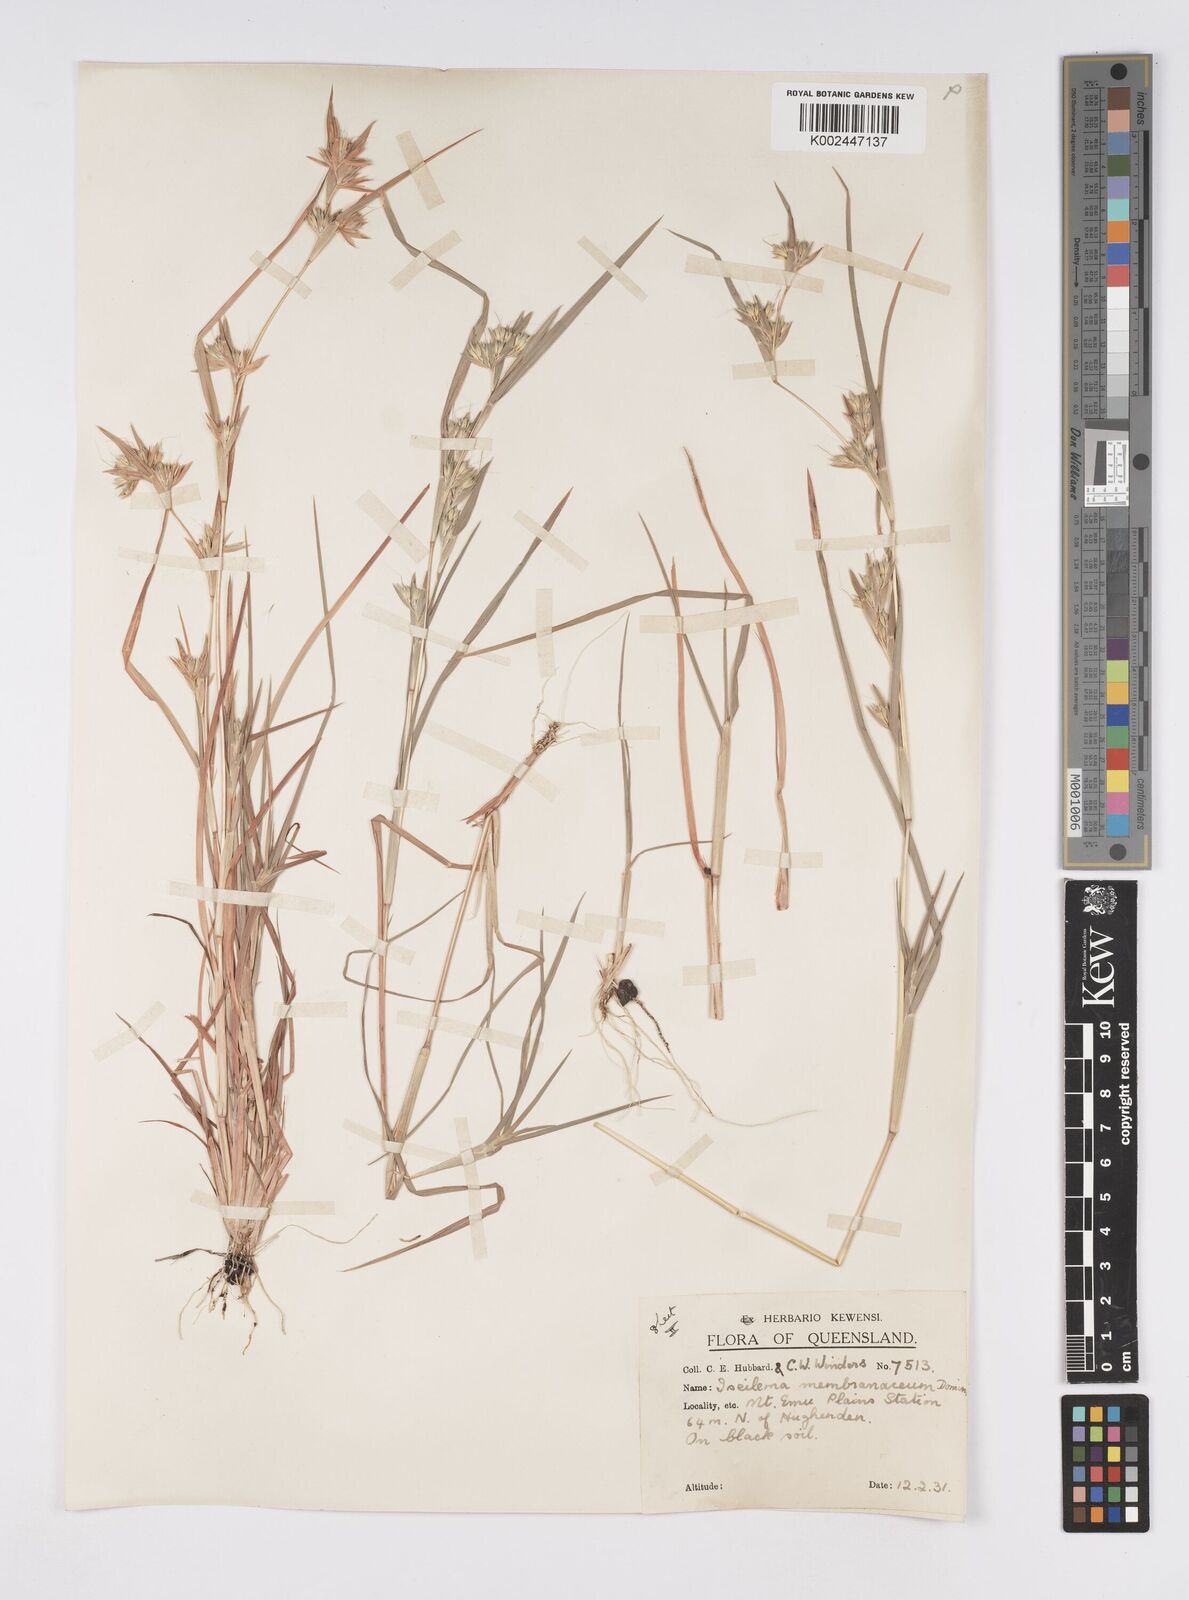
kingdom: Plantae
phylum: Tracheophyta
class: Liliopsida
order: Poales
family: Poaceae
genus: Iseilema
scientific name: Iseilema membranaceum
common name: Small flinders grass
